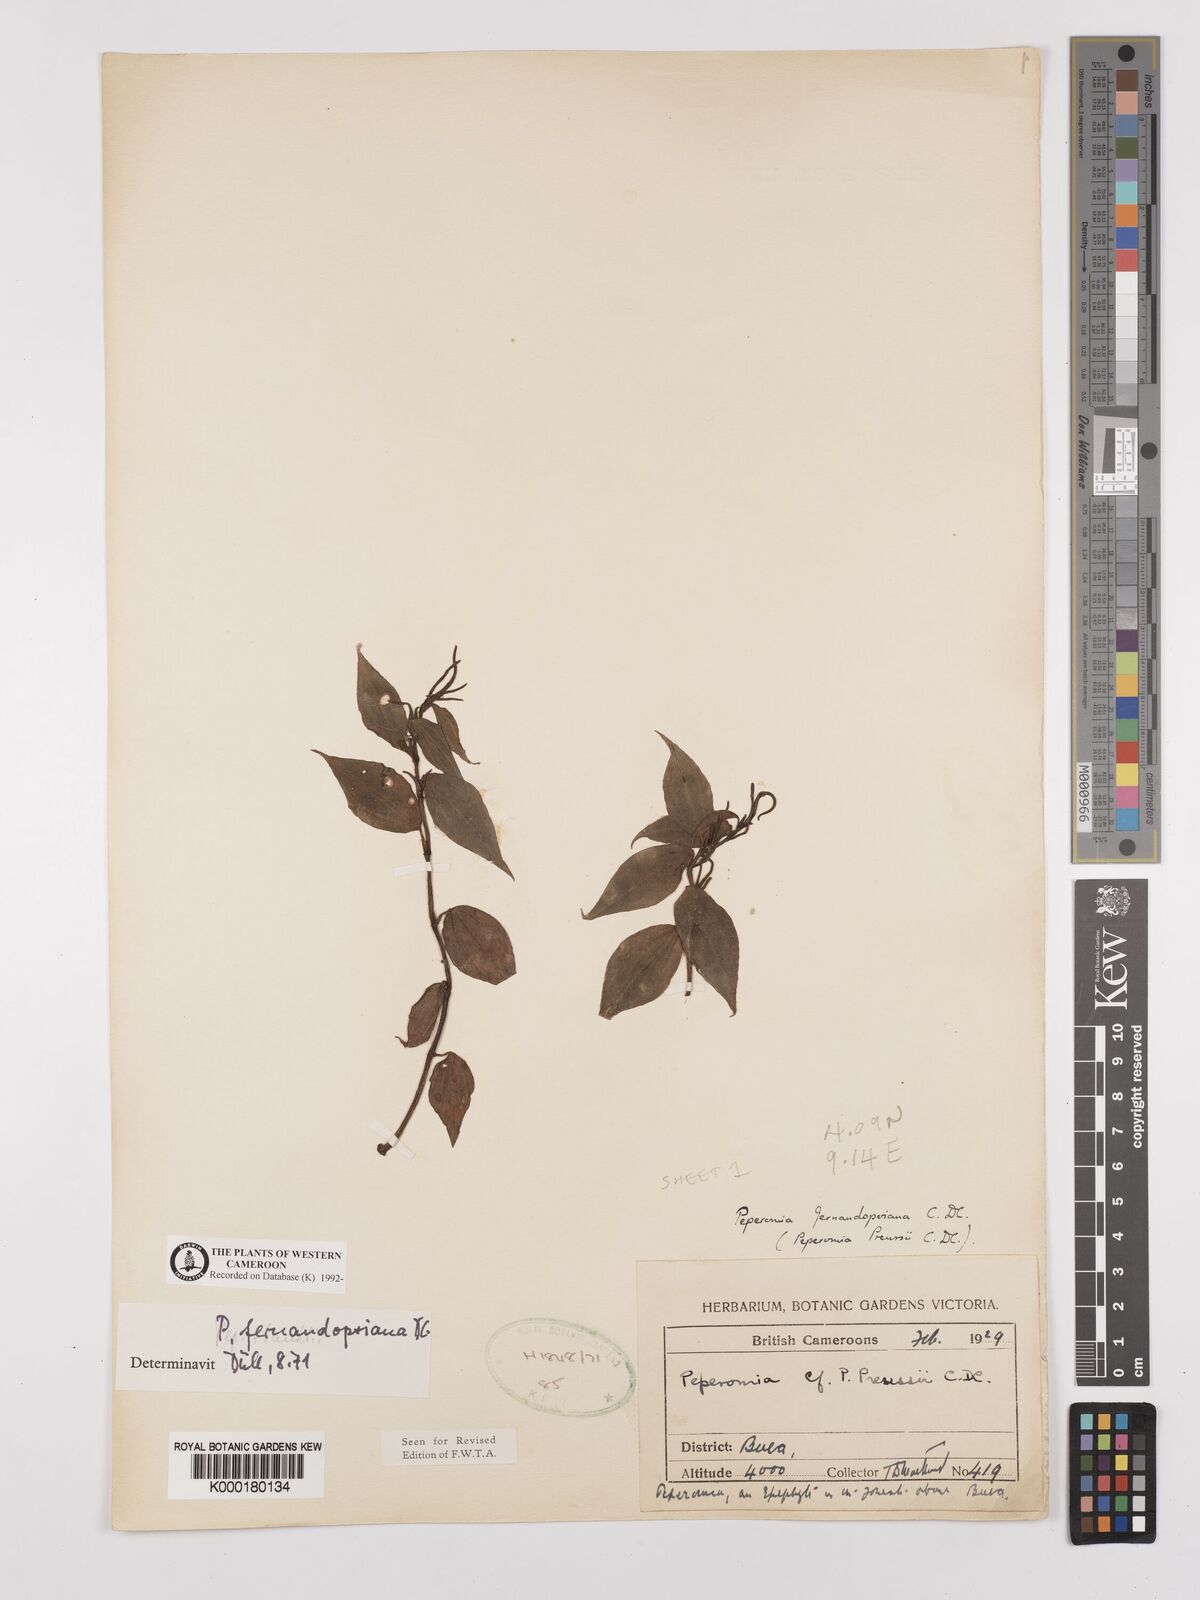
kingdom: Plantae
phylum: Tracheophyta
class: Magnoliopsida
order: Piperales
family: Piperaceae
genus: Peperomia
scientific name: Peperomia fernandopoiana
